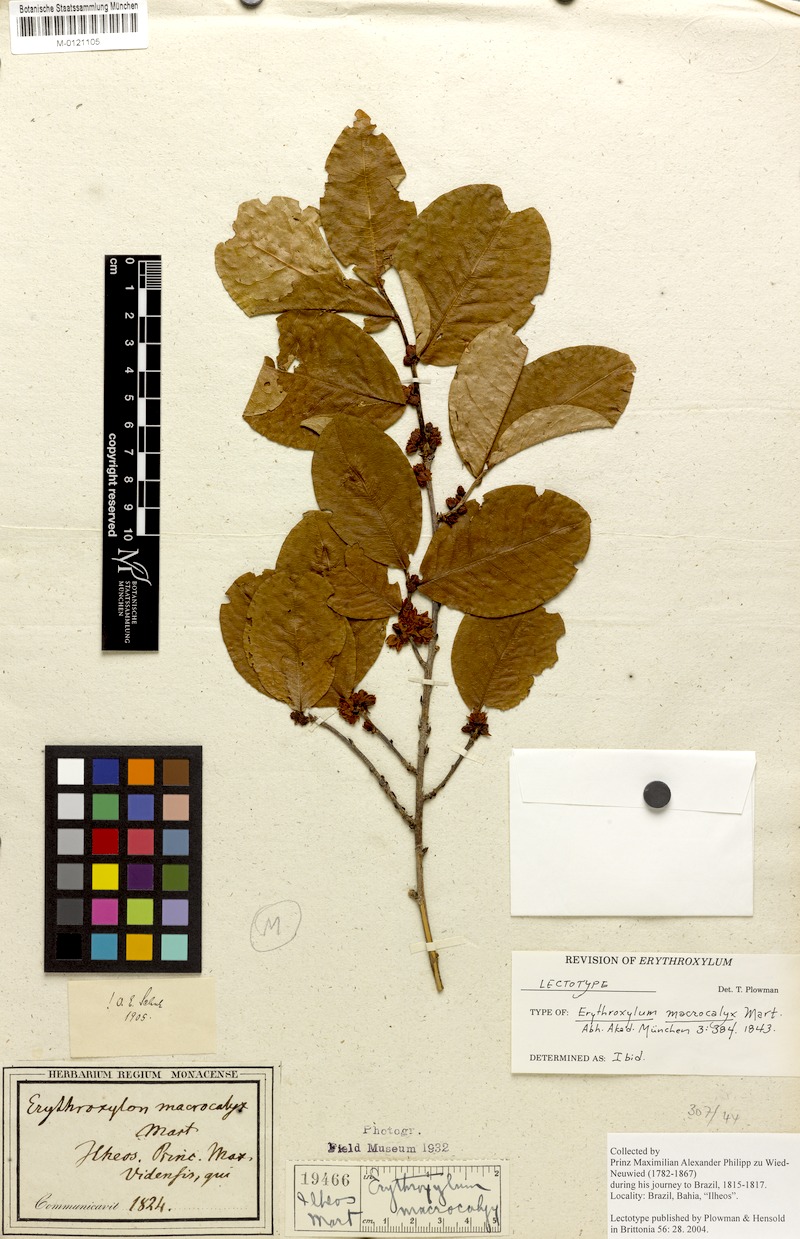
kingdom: Plantae
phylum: Tracheophyta
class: Magnoliopsida
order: Malpighiales
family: Erythroxylaceae
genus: Erythroxylum
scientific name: Erythroxylum macrocalyx
